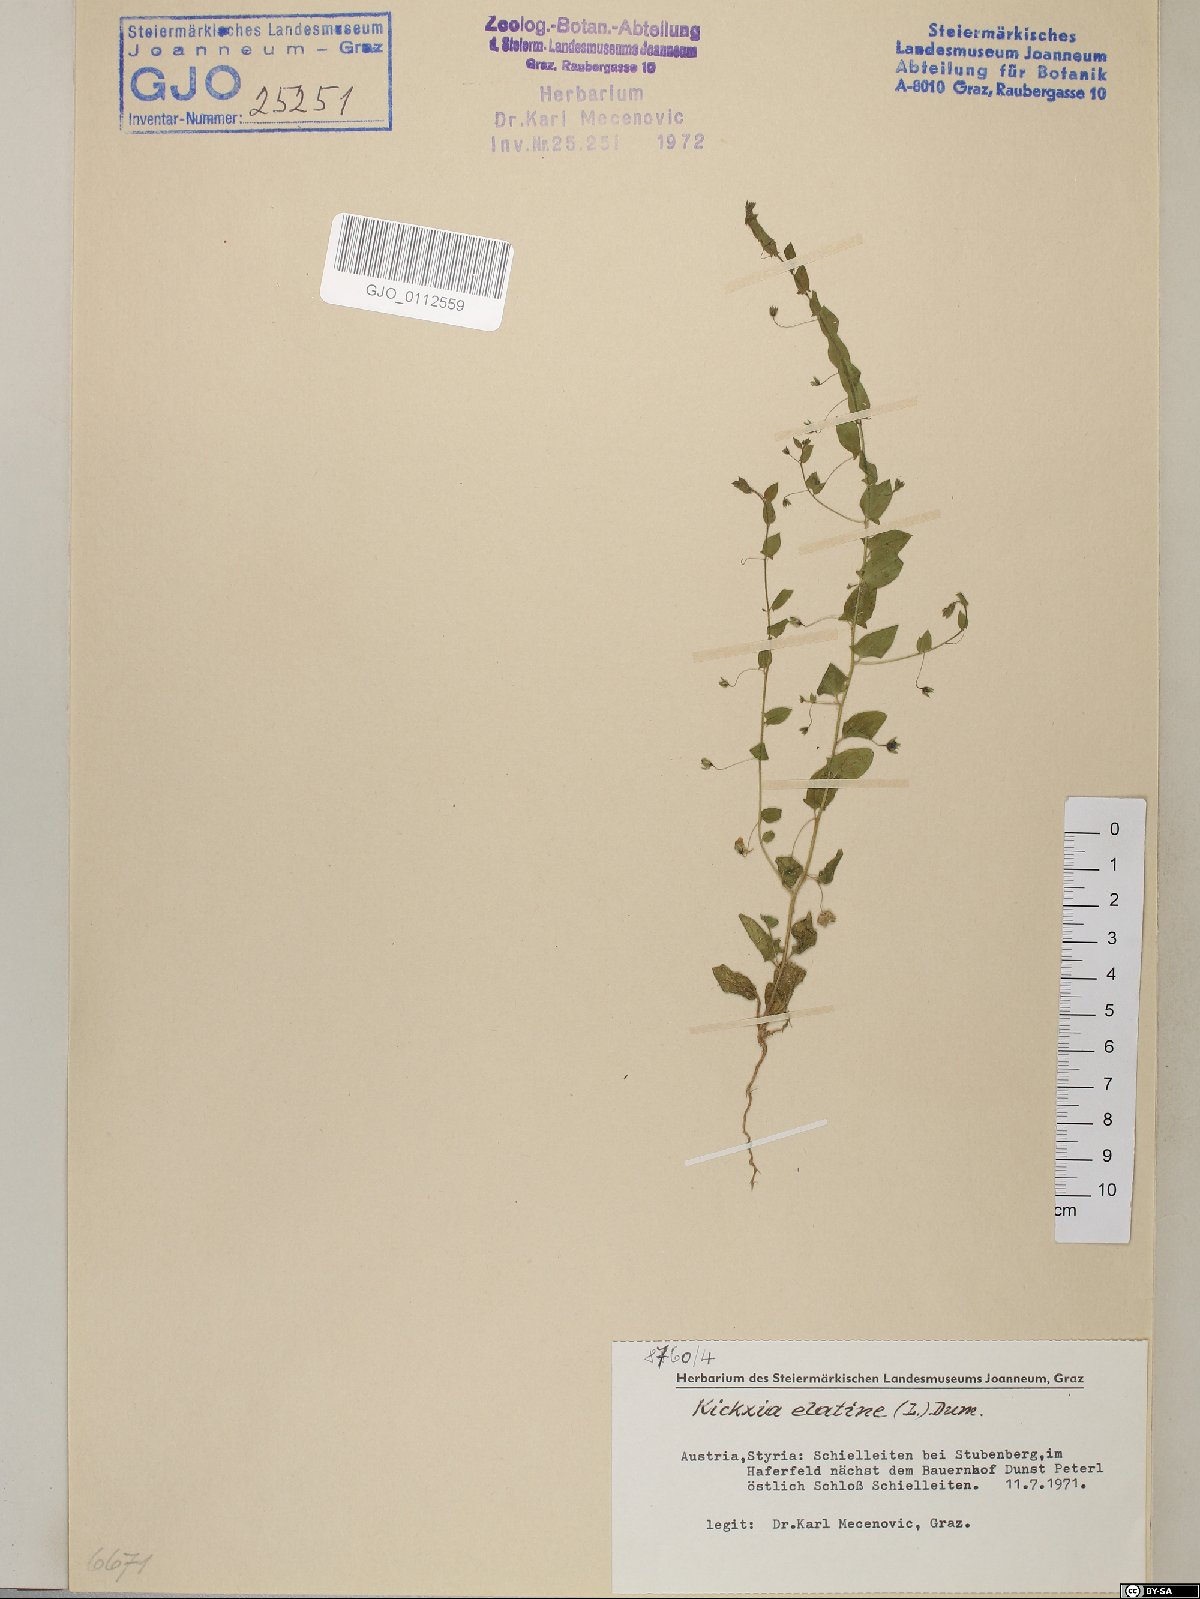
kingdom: Plantae
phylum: Tracheophyta
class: Magnoliopsida
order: Lamiales
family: Plantaginaceae
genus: Kickxia
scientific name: Kickxia elatine
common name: Sharp-leaved fluellen
